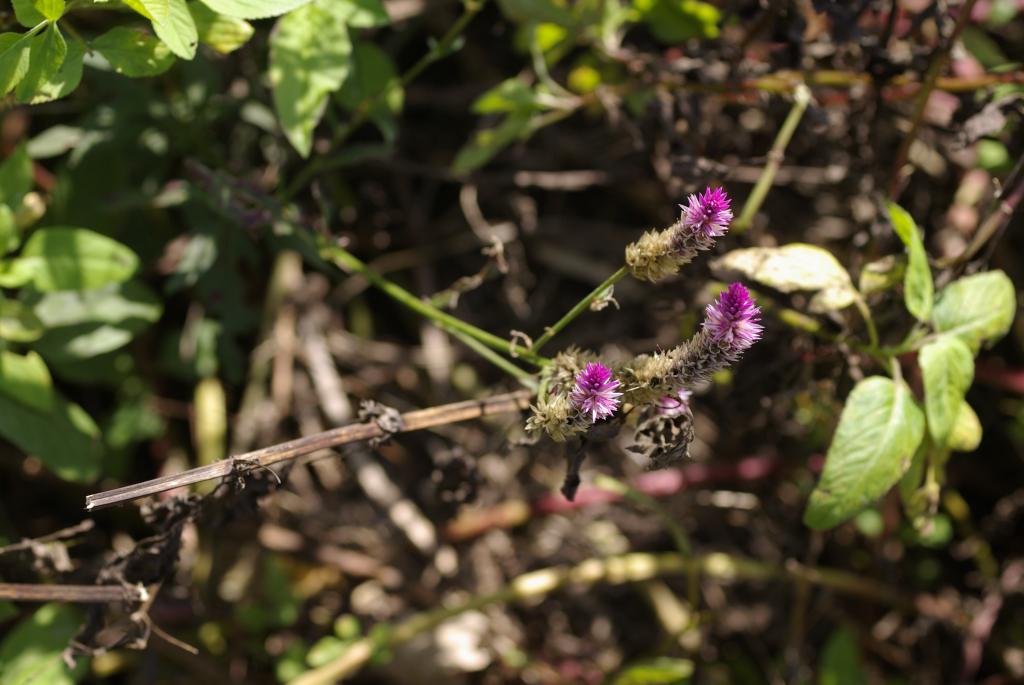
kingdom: Plantae
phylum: Tracheophyta
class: Magnoliopsida
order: Caryophyllales
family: Amaranthaceae
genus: Celosia
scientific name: Celosia argentea
